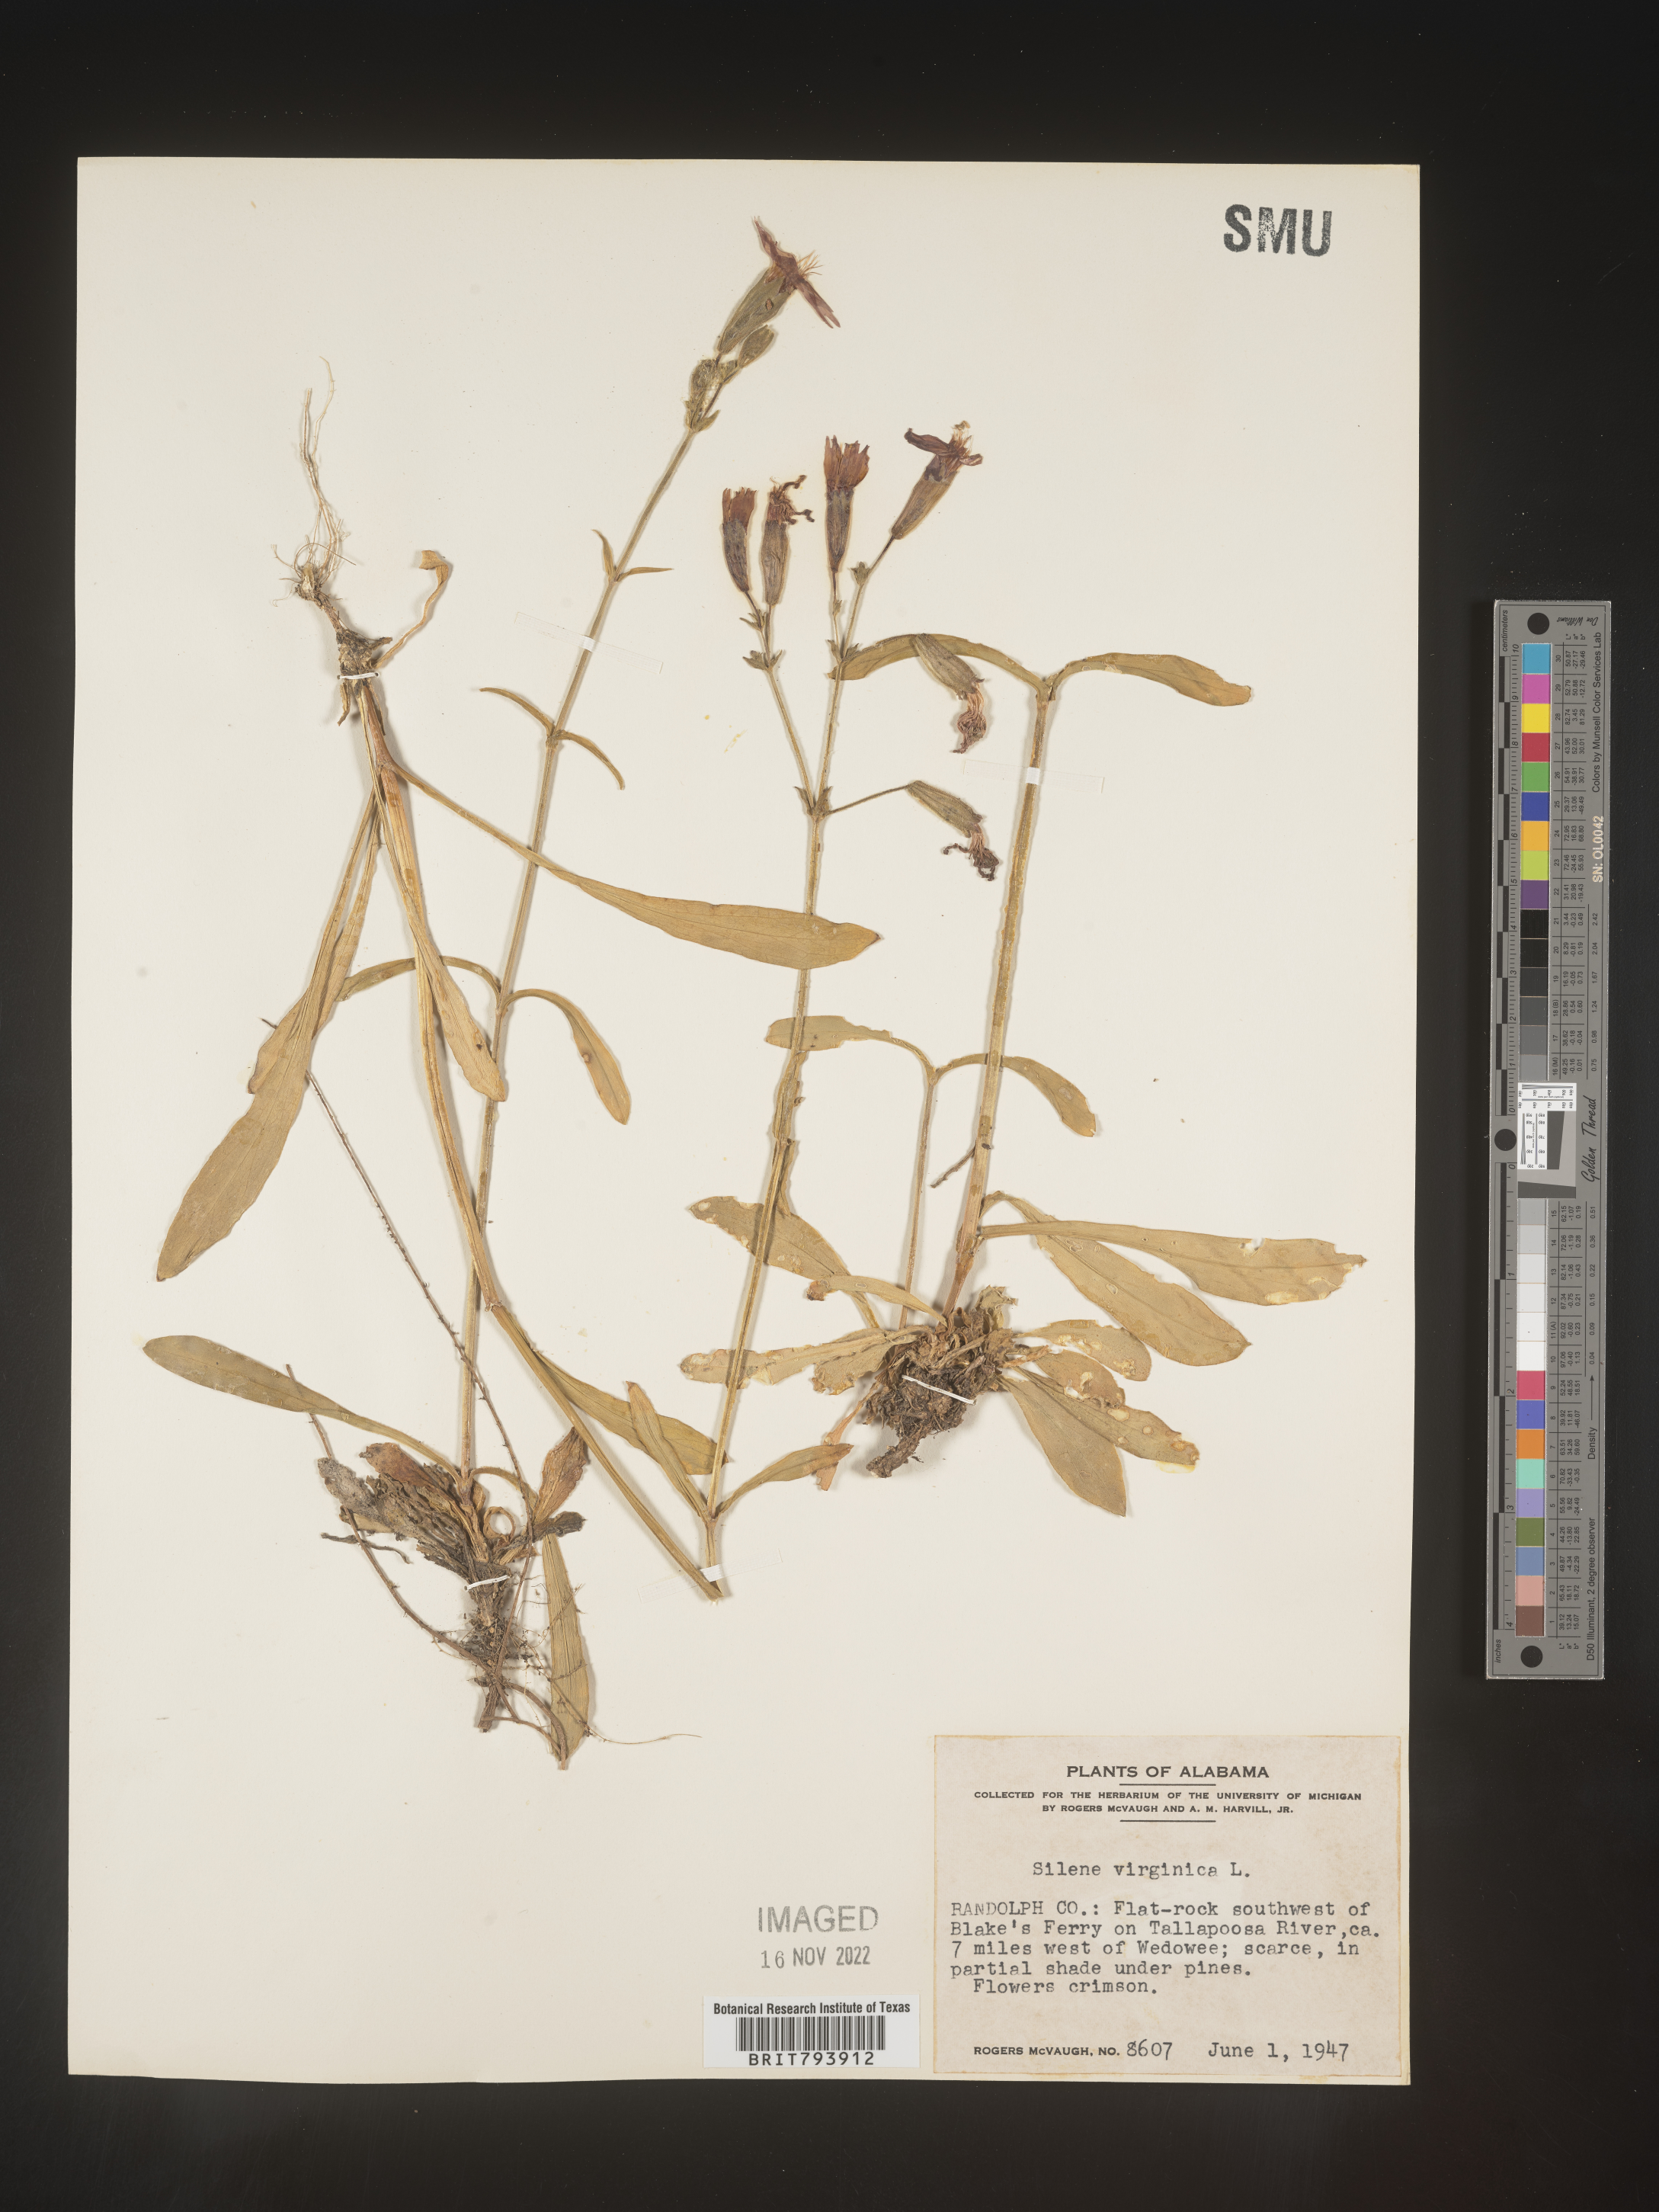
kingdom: Plantae
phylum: Tracheophyta
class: Magnoliopsida
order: Caryophyllales
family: Caryophyllaceae
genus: Silene
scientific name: Silene virginica
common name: Fire-pink
